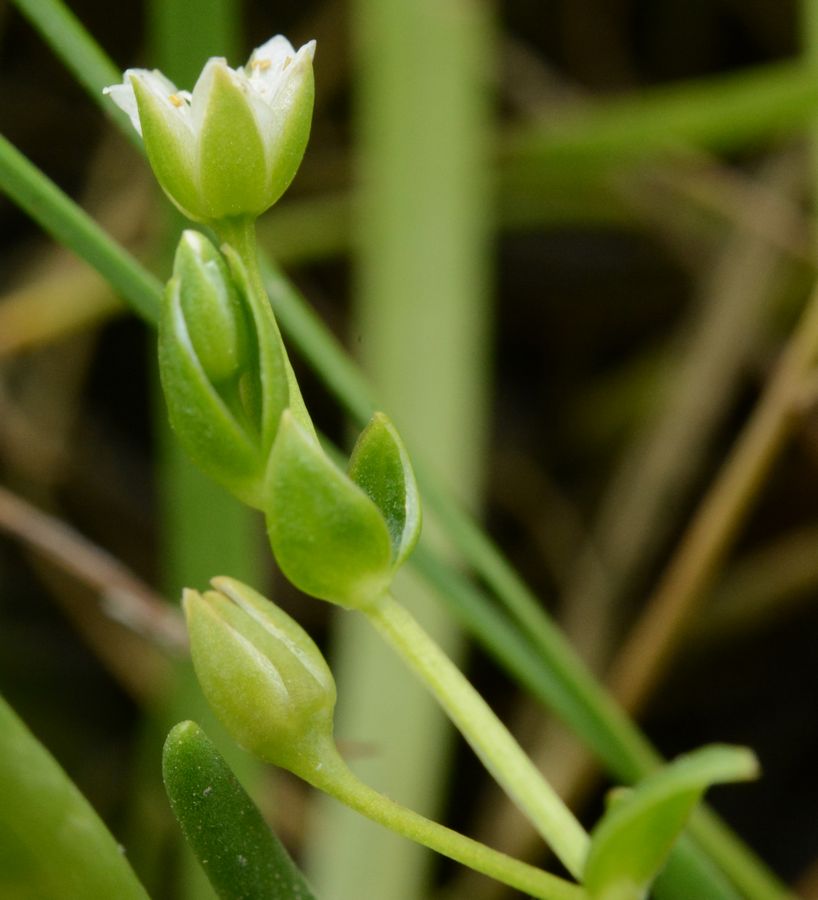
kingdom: Plantae
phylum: Tracheophyta
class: Magnoliopsida
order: Caryophyllales
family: Caryophyllaceae
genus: Stellaria
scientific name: Stellaria humifusa
